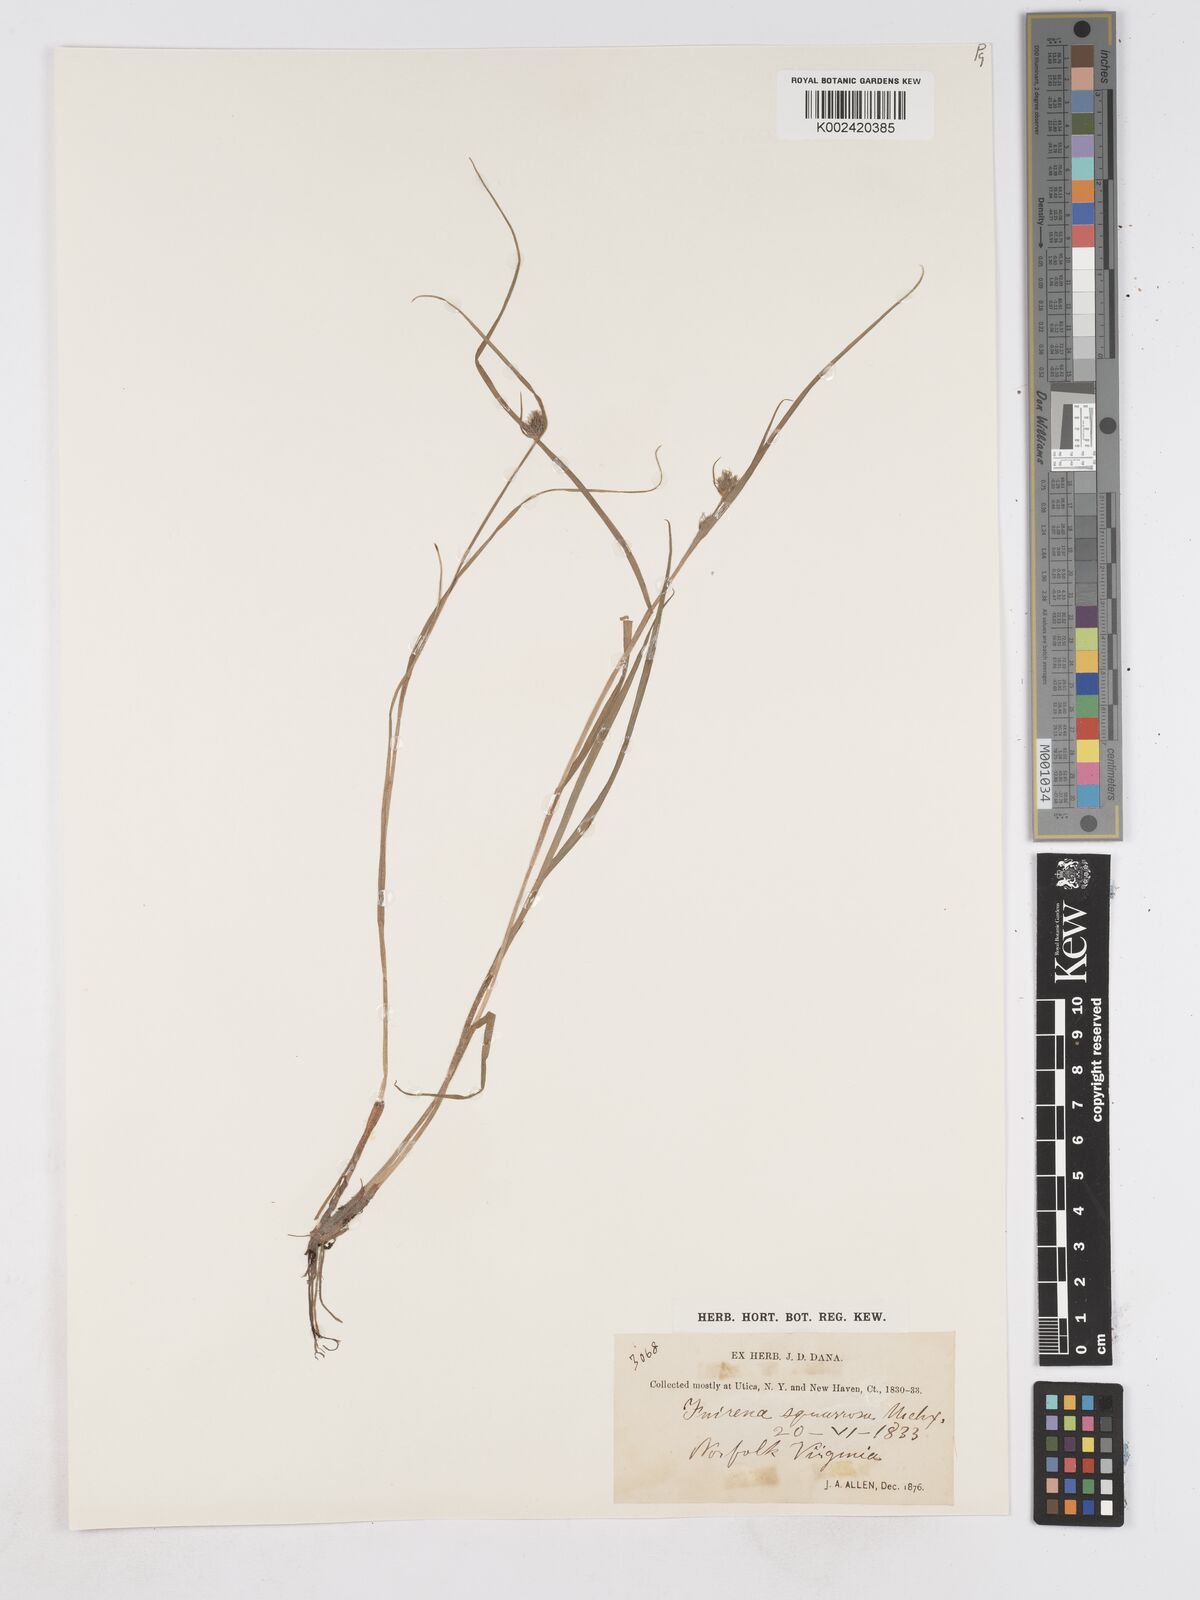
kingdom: Plantae
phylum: Tracheophyta
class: Liliopsida
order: Poales
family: Cyperaceae
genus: Fuirena
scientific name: Fuirena squarrosa
